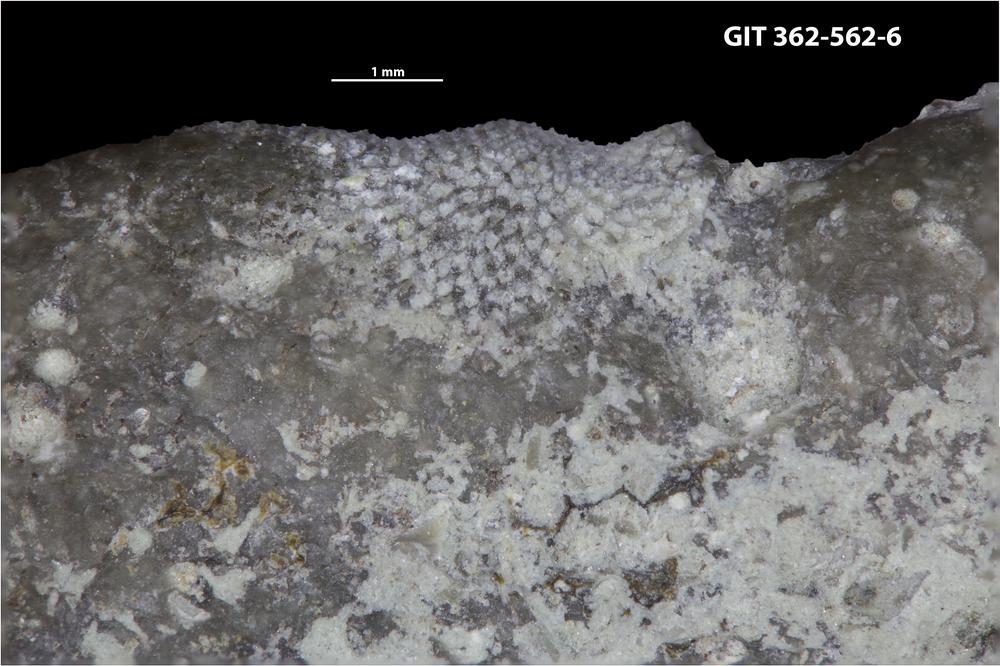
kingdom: Animalia
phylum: Bryozoa
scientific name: Bryozoa
